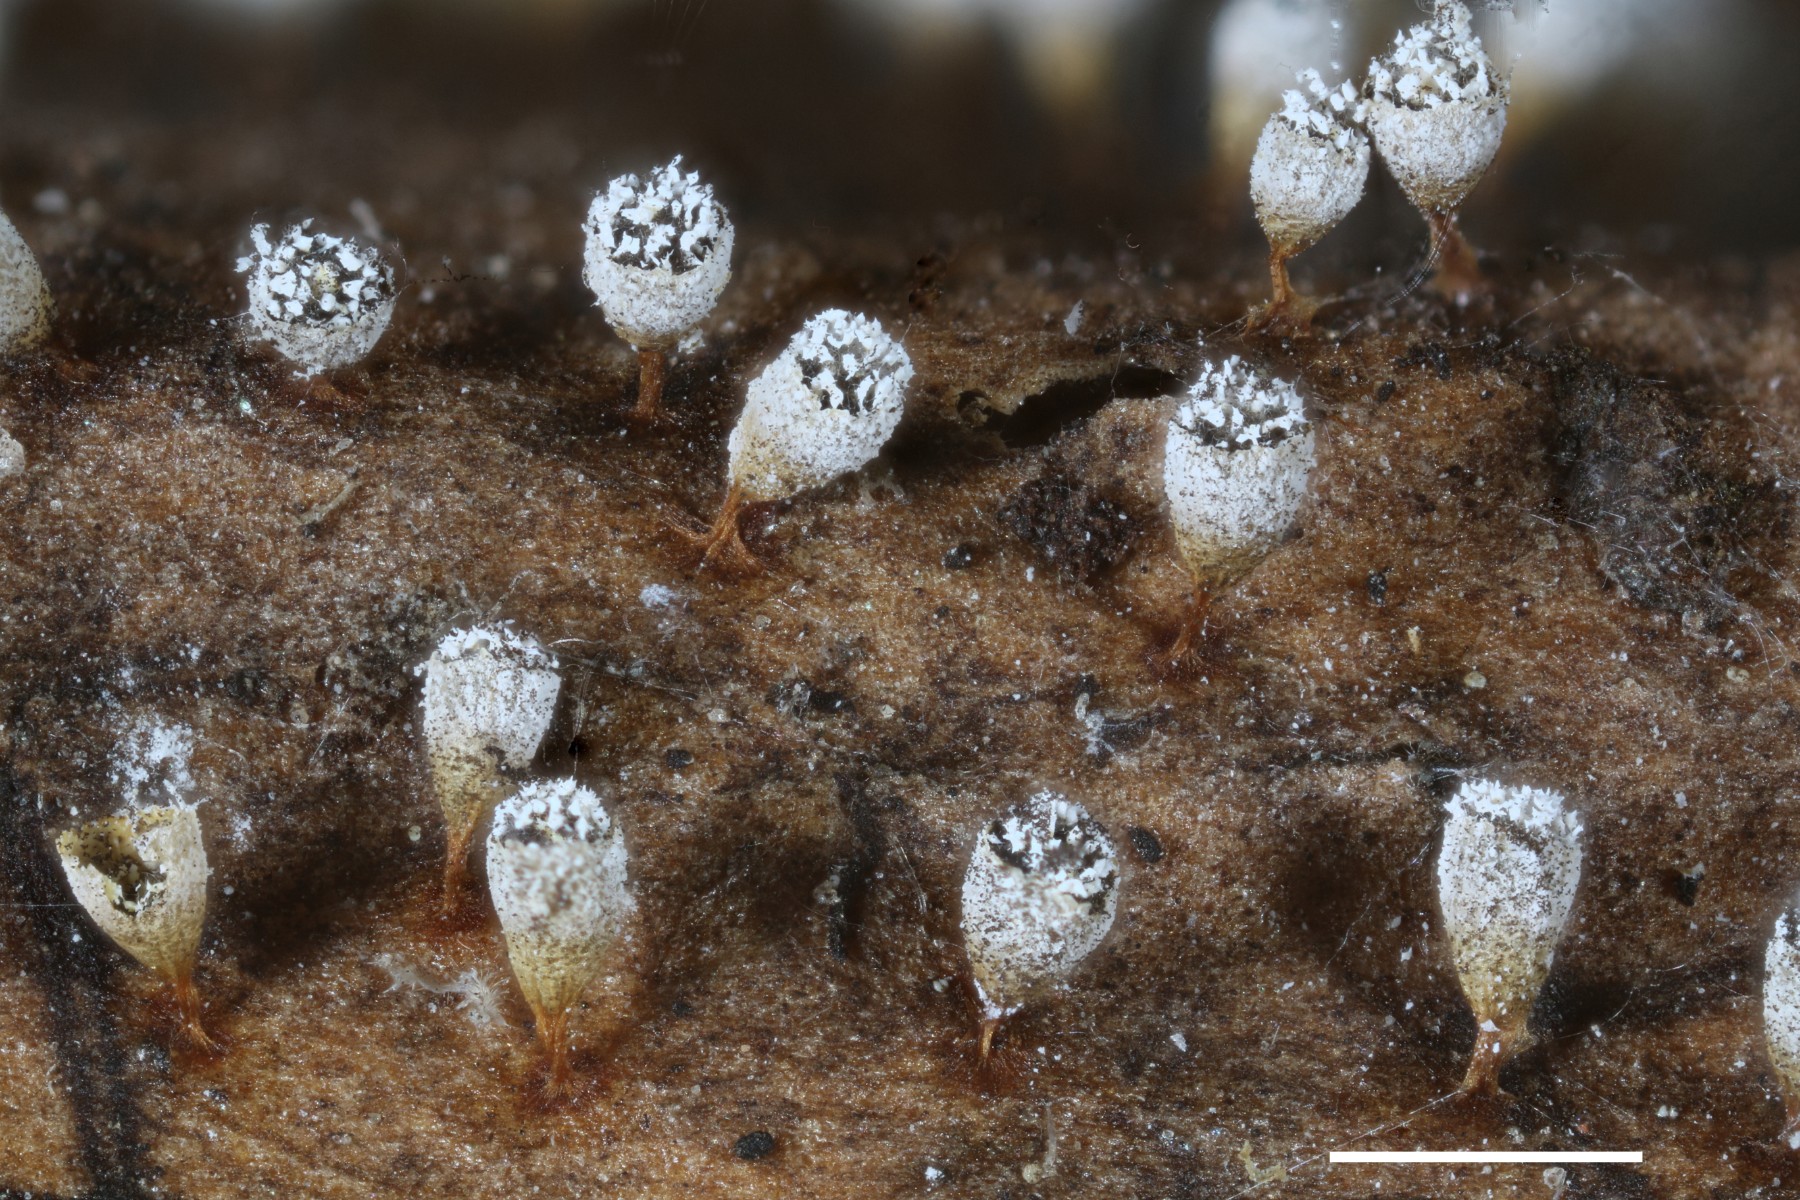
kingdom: Protozoa
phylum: Mycetozoa
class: Myxomycetes
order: Physarales
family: Physaraceae
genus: Craterium
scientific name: Craterium leucocephalum
